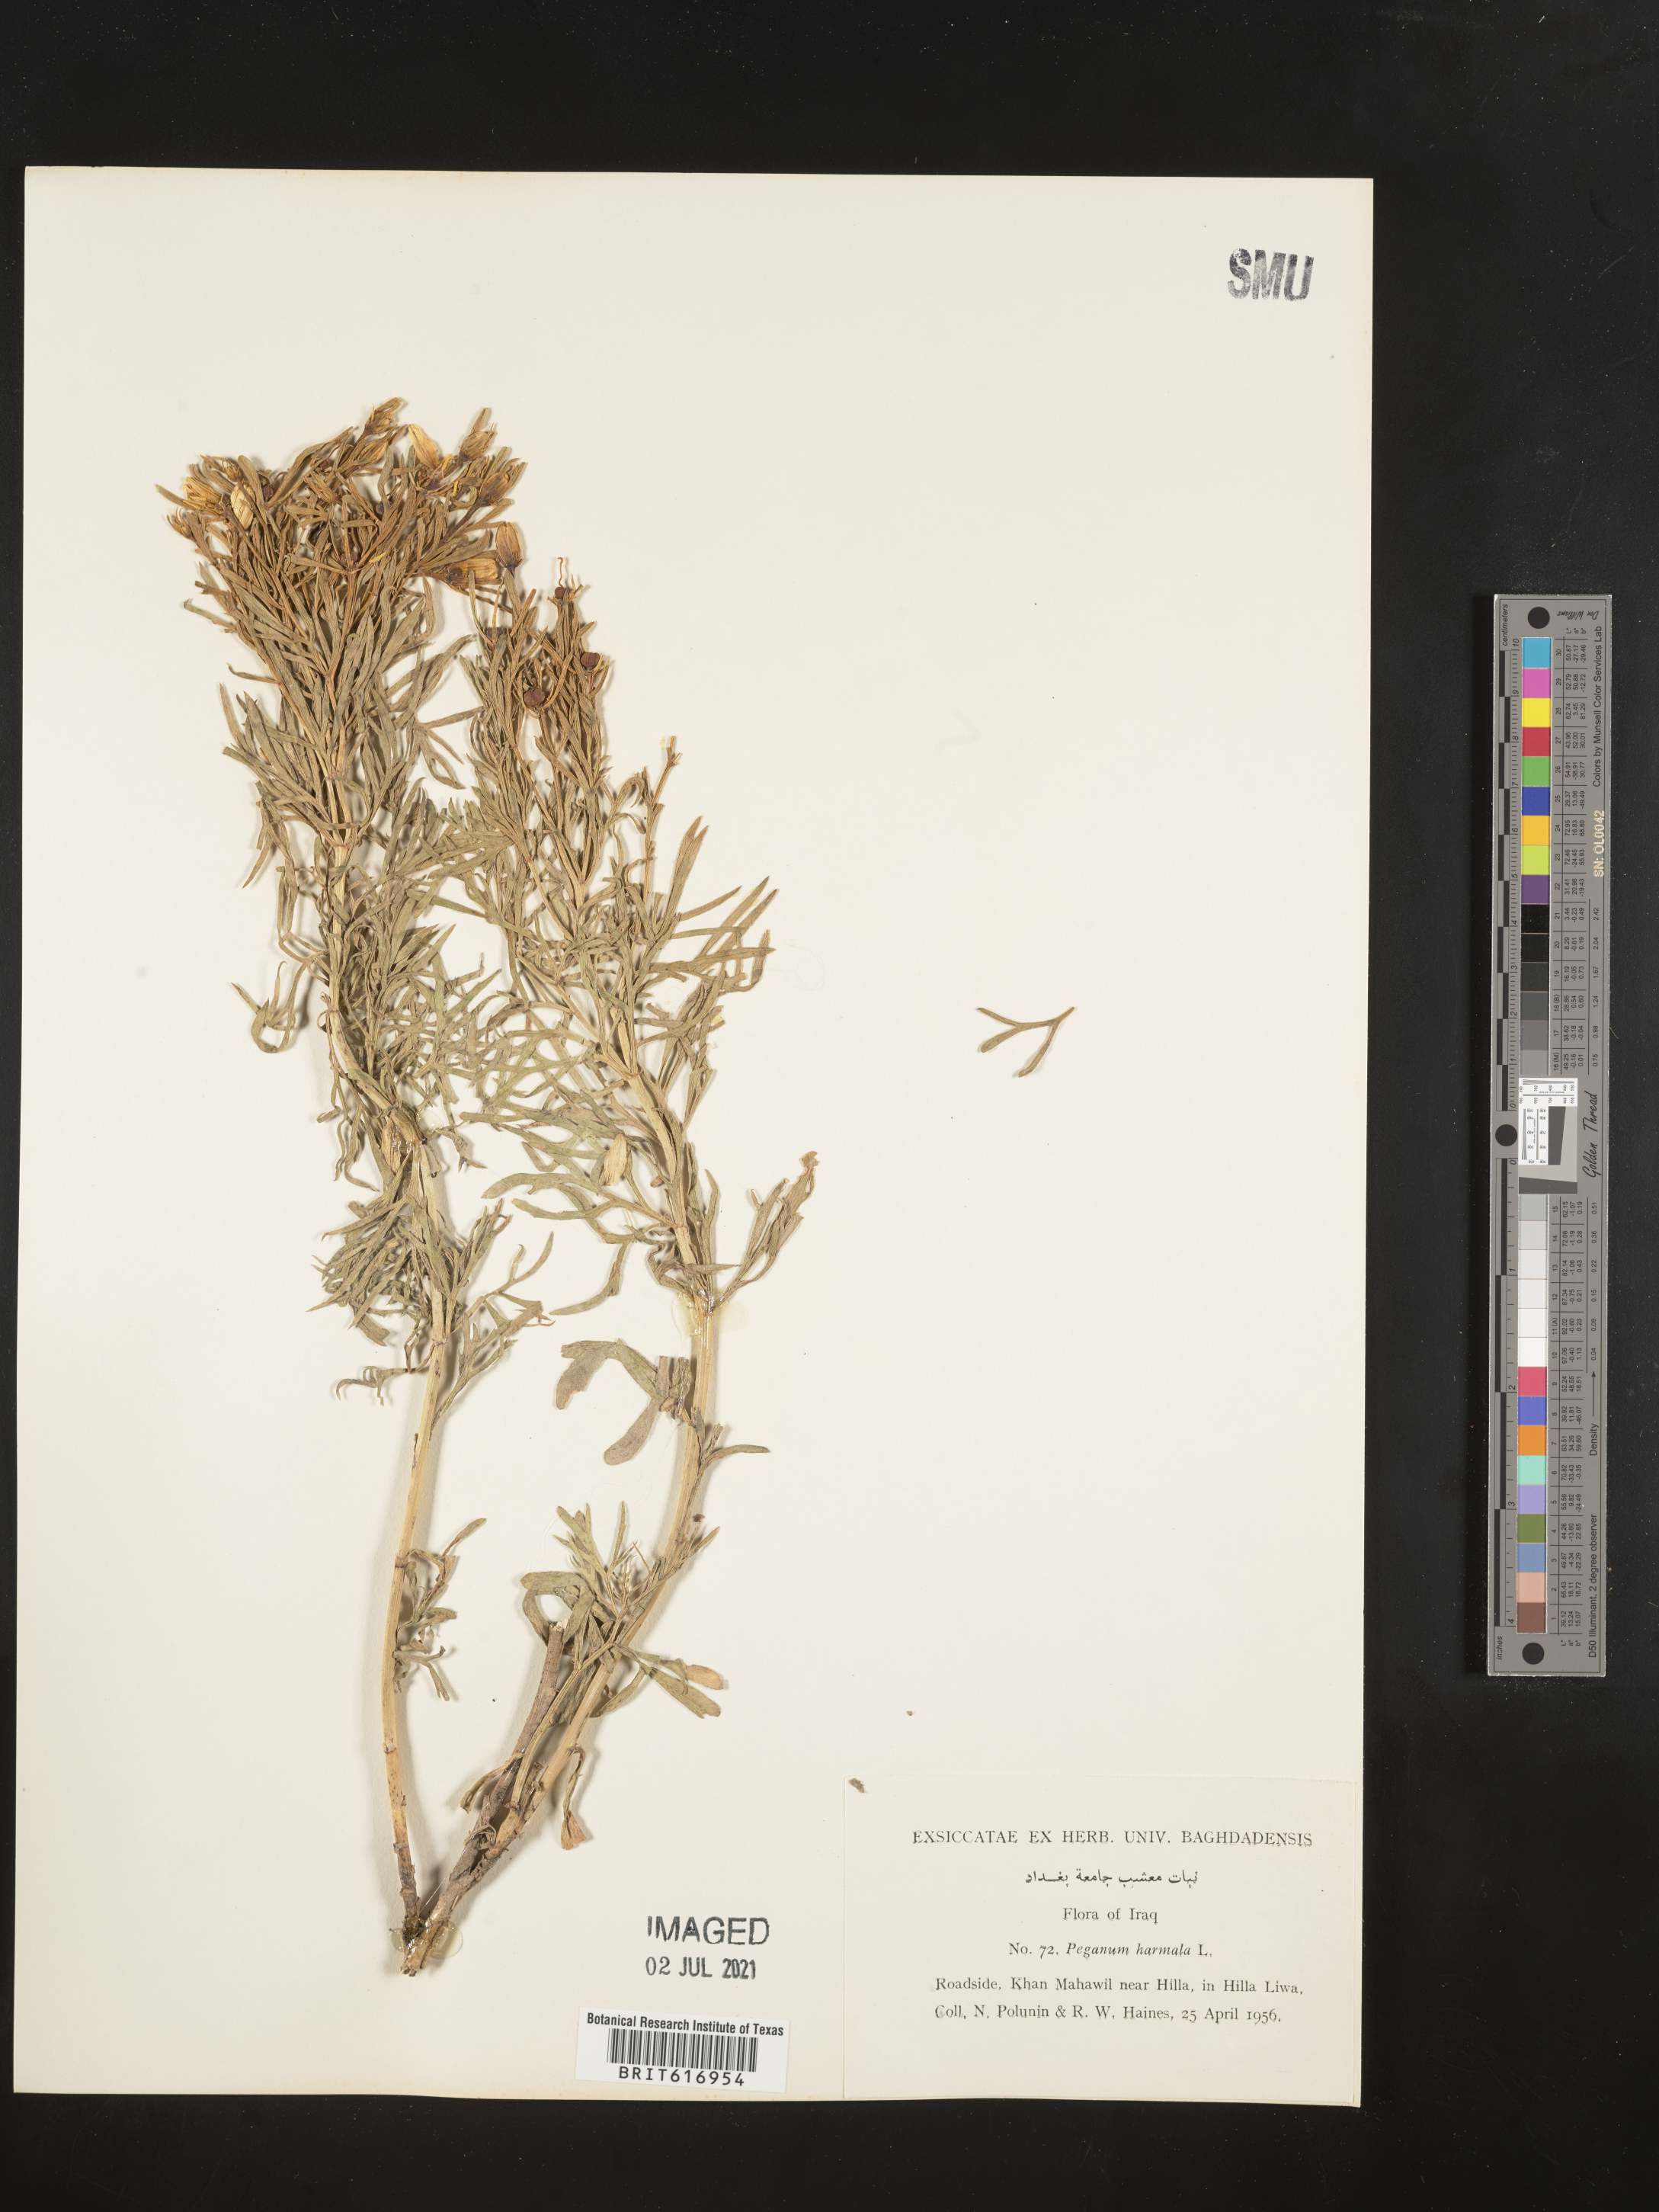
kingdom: Plantae
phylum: Tracheophyta
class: Magnoliopsida
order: Sapindales
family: Tetradiclidaceae
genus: Peganum
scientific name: Peganum harmala
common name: Harmal peganum
